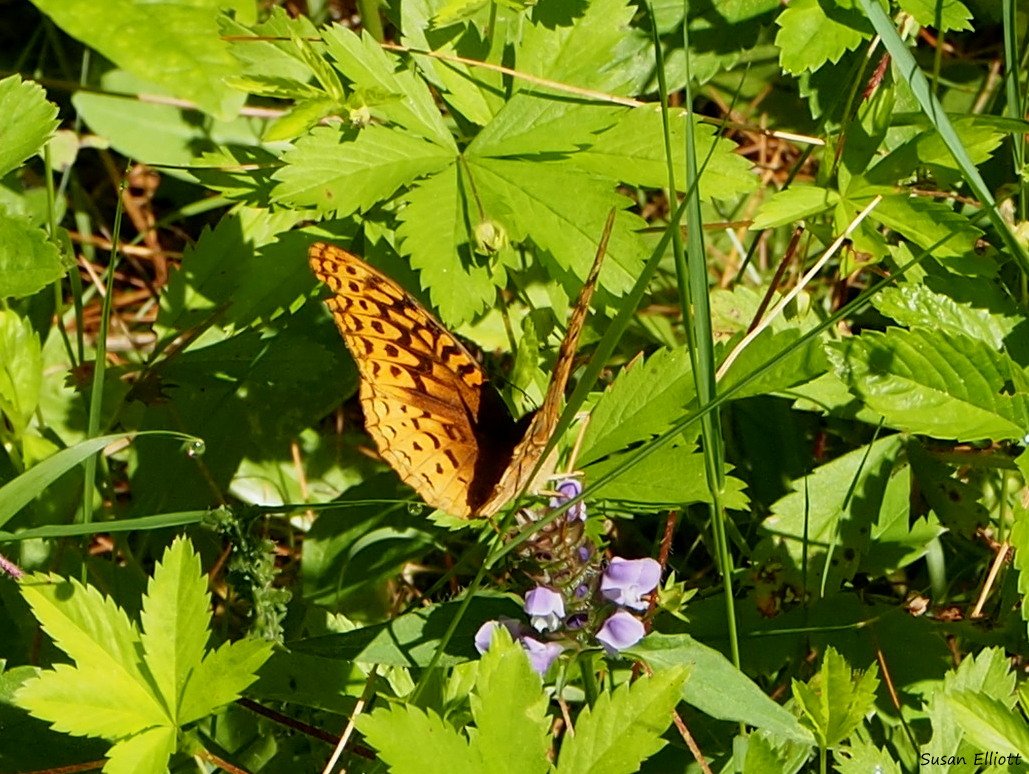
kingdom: Animalia
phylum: Arthropoda
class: Insecta
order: Lepidoptera
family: Nymphalidae
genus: Speyeria
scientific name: Speyeria cybele
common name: Great Spangled Fritillary
